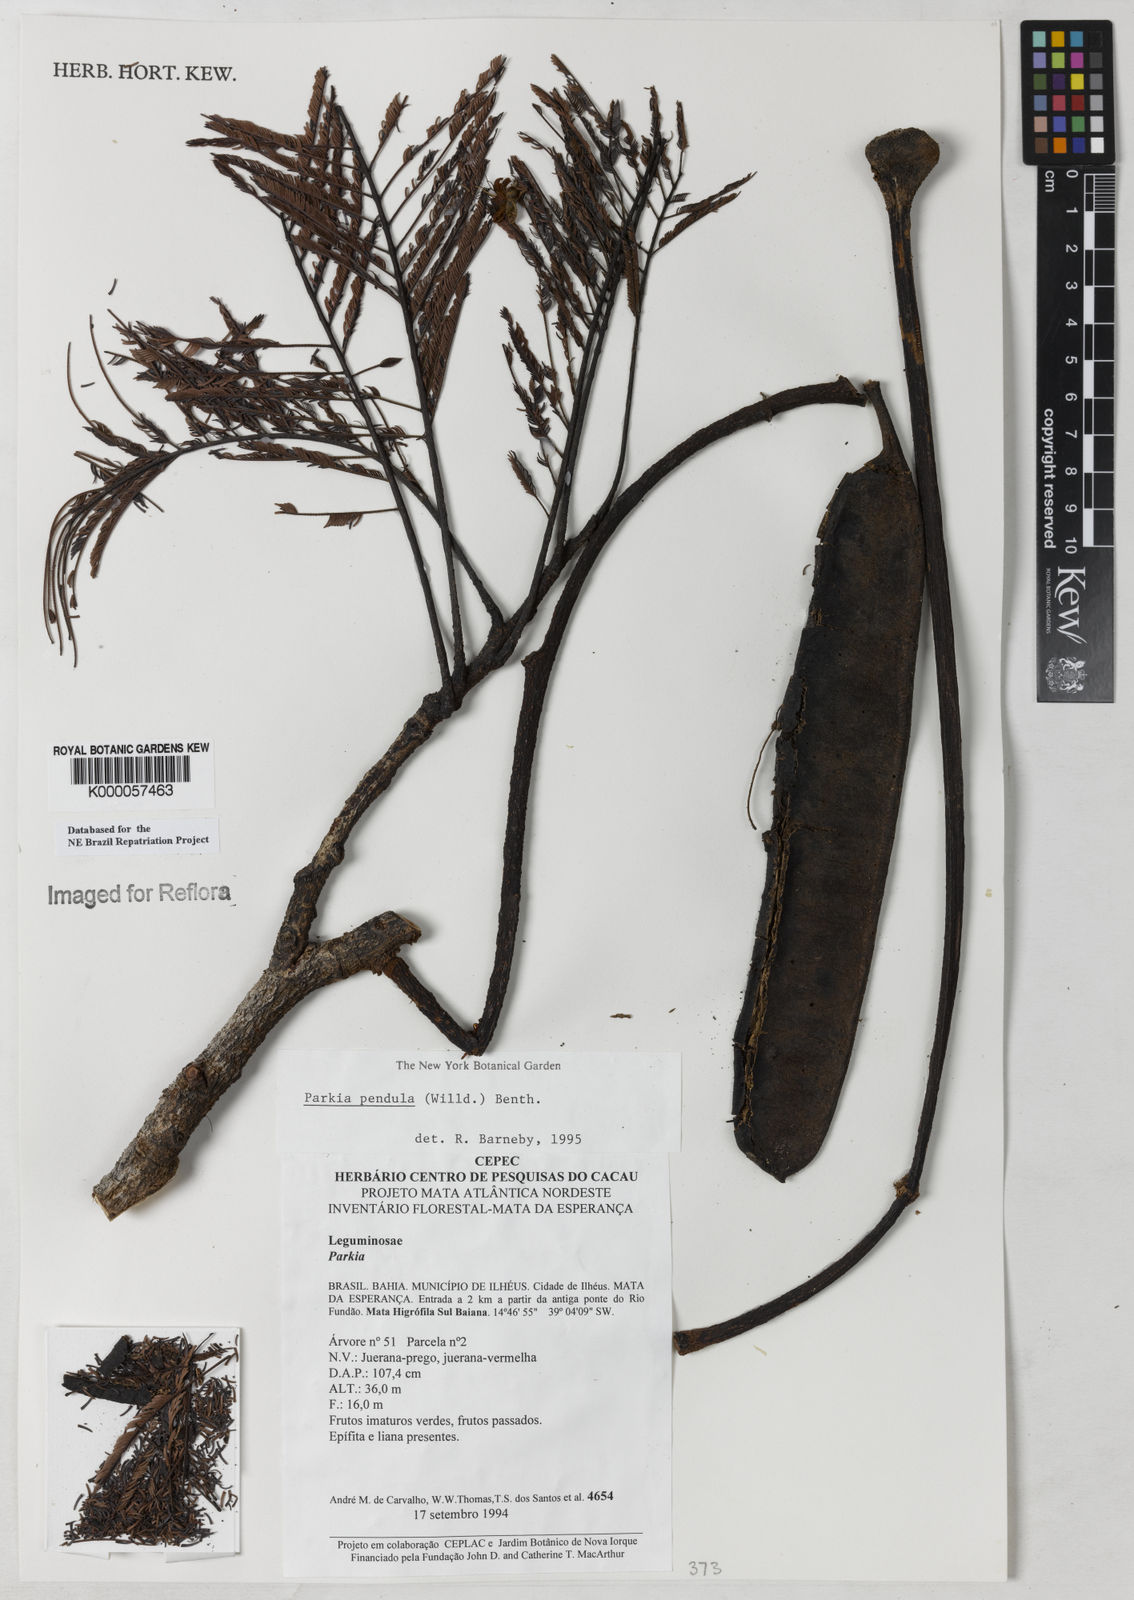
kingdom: Plantae
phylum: Tracheophyta
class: Magnoliopsida
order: Fabales
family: Fabaceae
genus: Parkia
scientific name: Parkia
